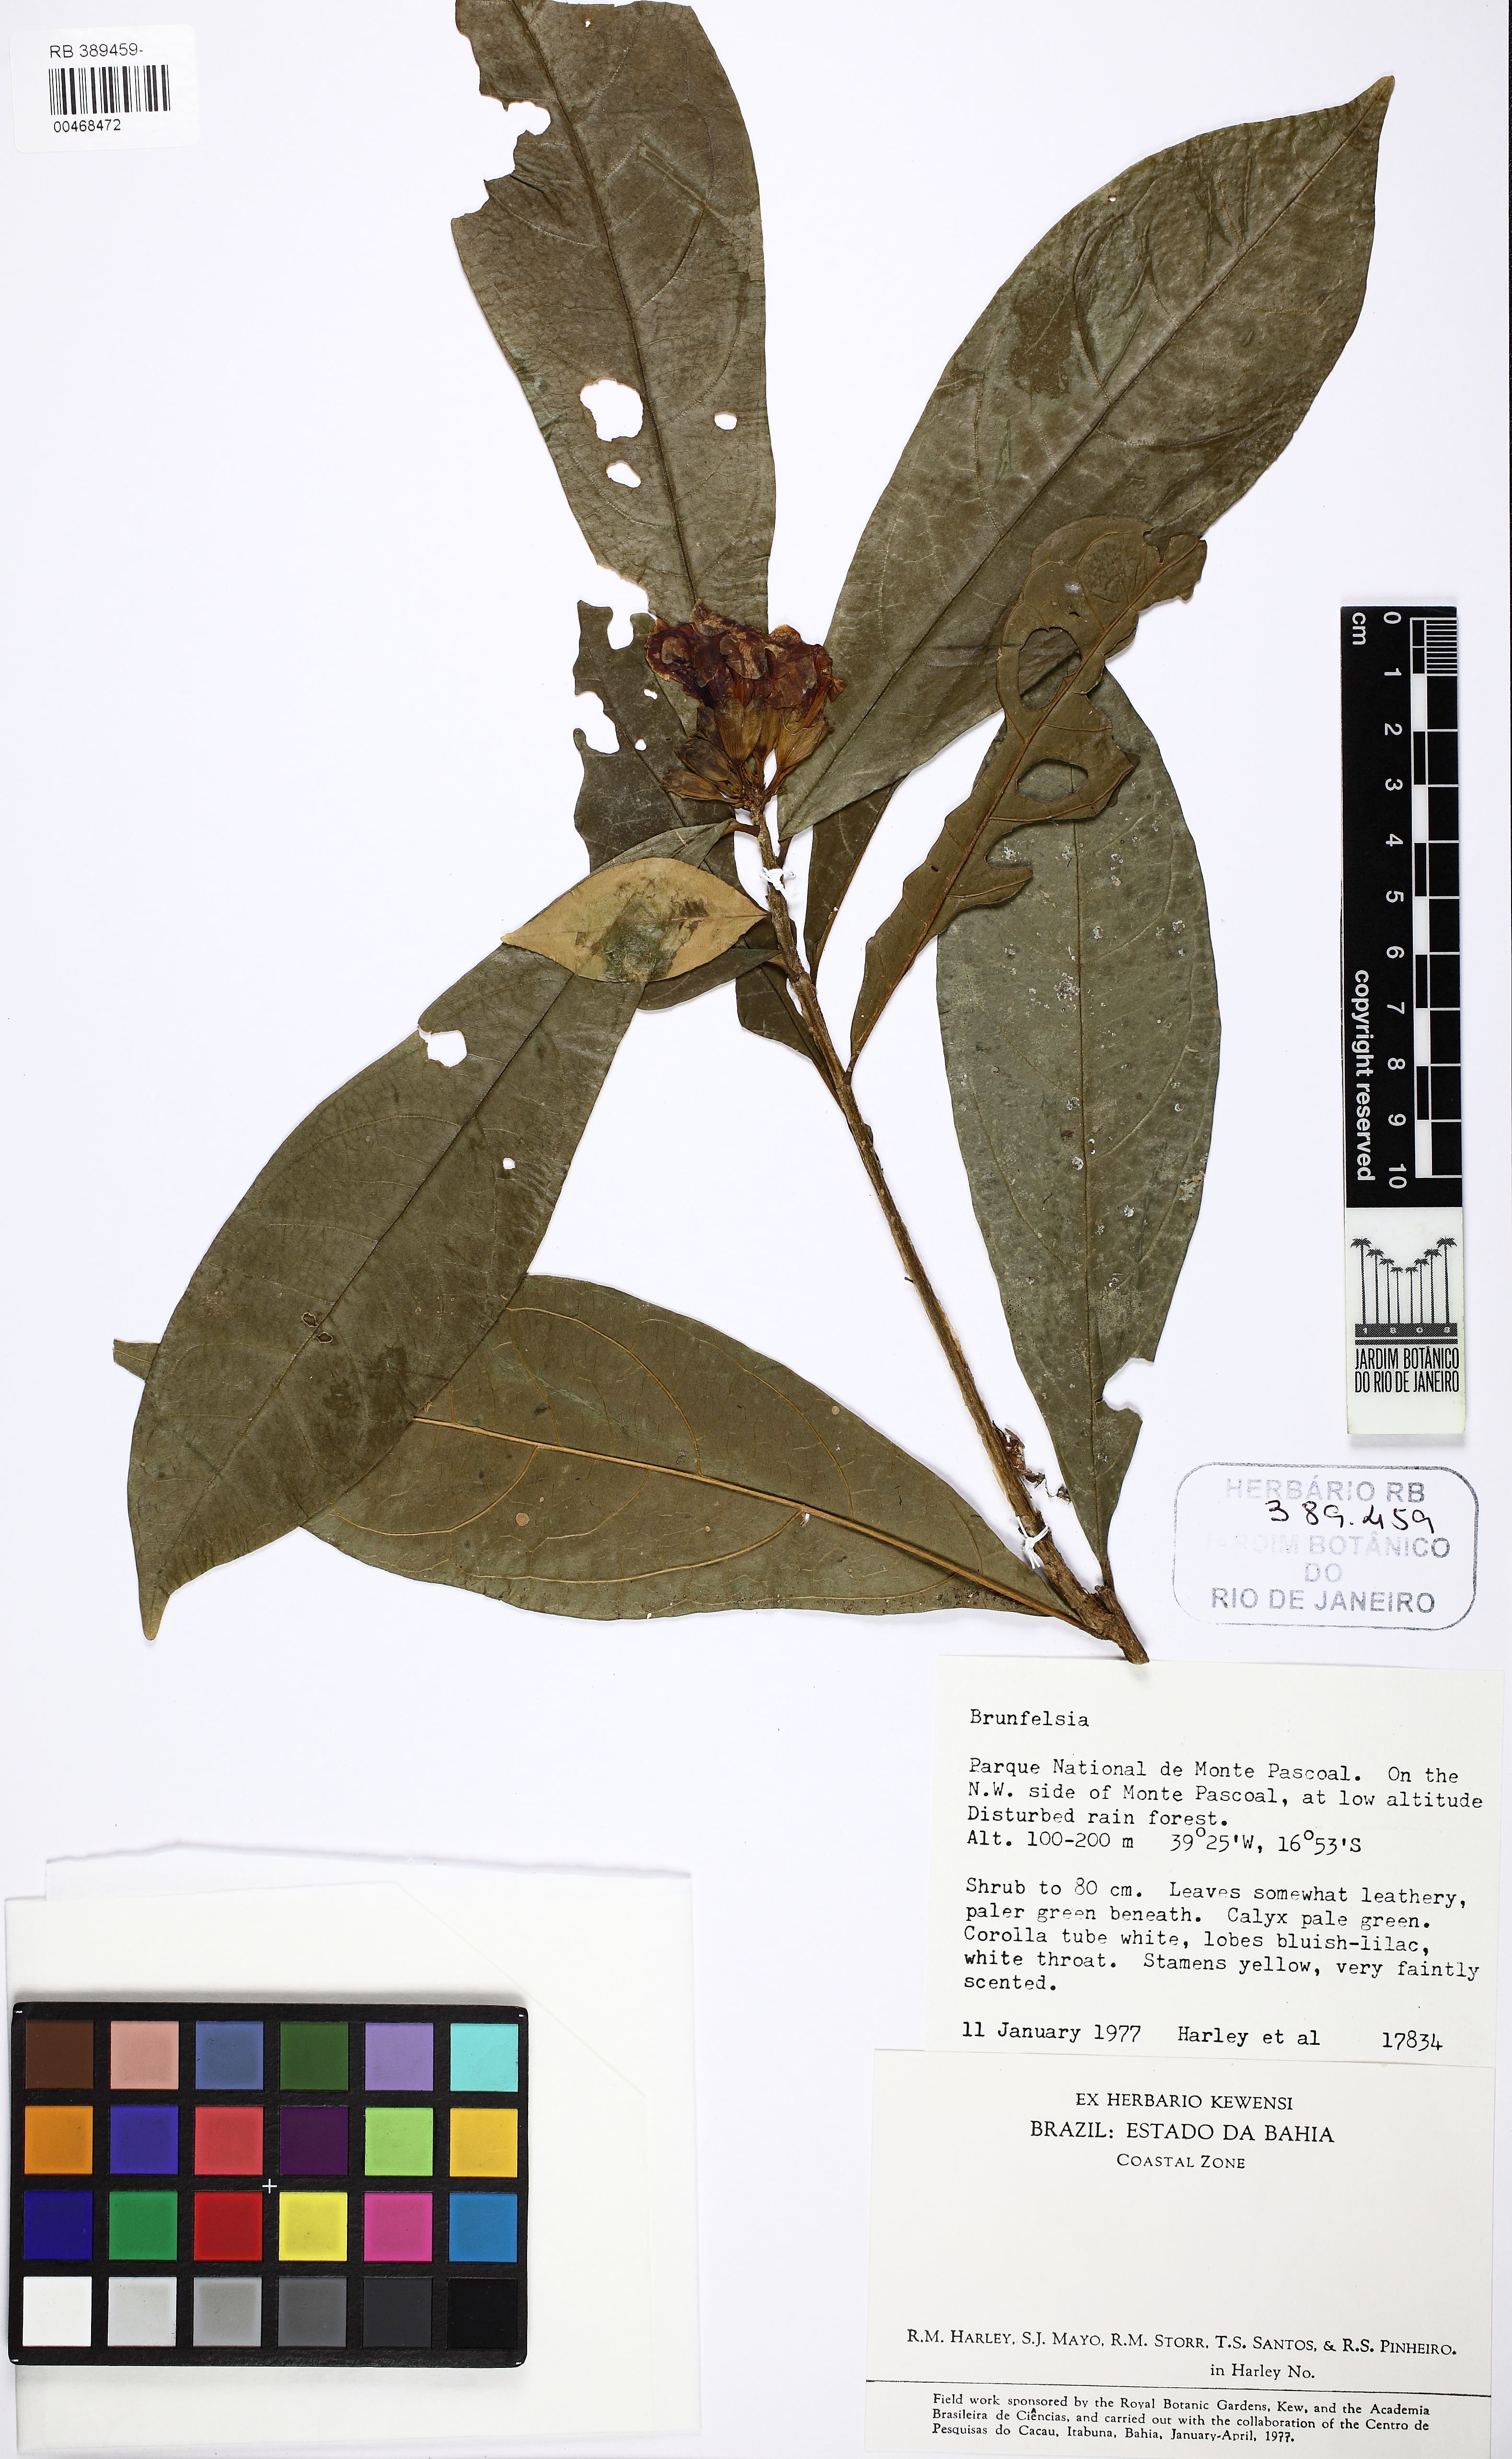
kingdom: Plantae
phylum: Tracheophyta
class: Magnoliopsida
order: Solanales
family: Solanaceae
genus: Brunfelsia
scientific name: Brunfelsia
